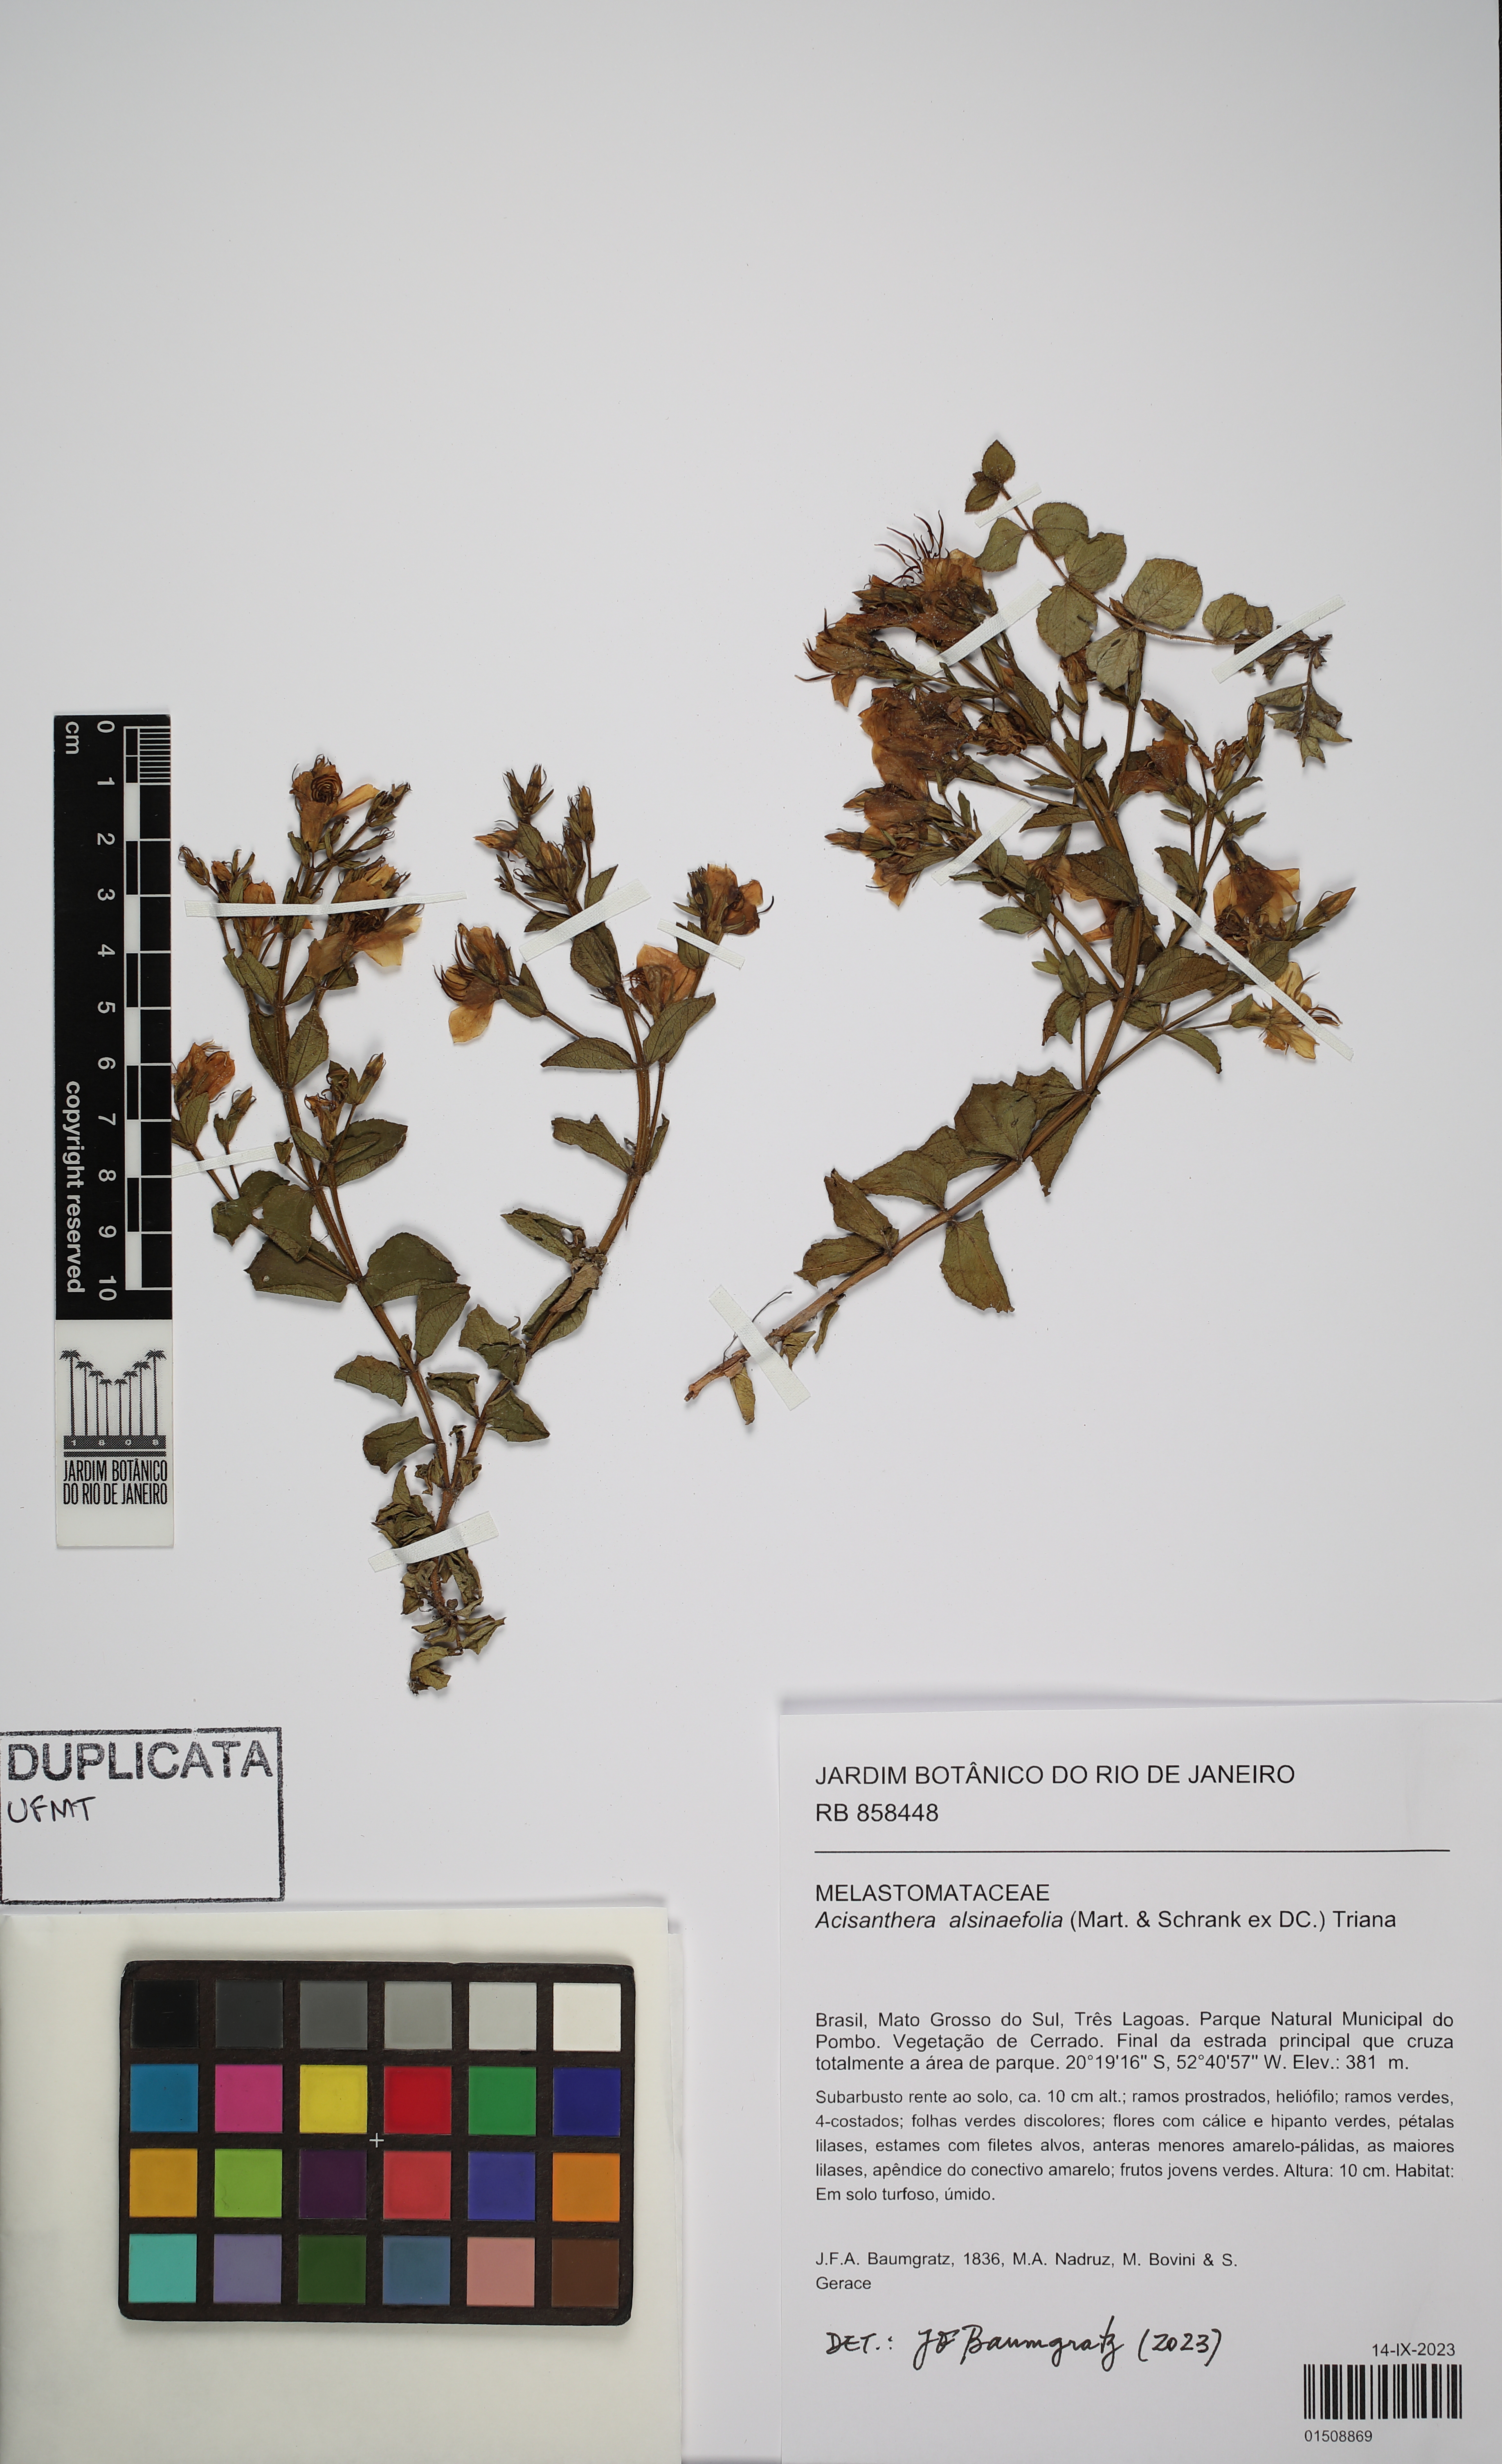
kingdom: Plantae
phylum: Tracheophyta
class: Magnoliopsida
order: Myrtales
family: Melastomataceae
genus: Acisanthera
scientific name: Acisanthera alsinaefolia
